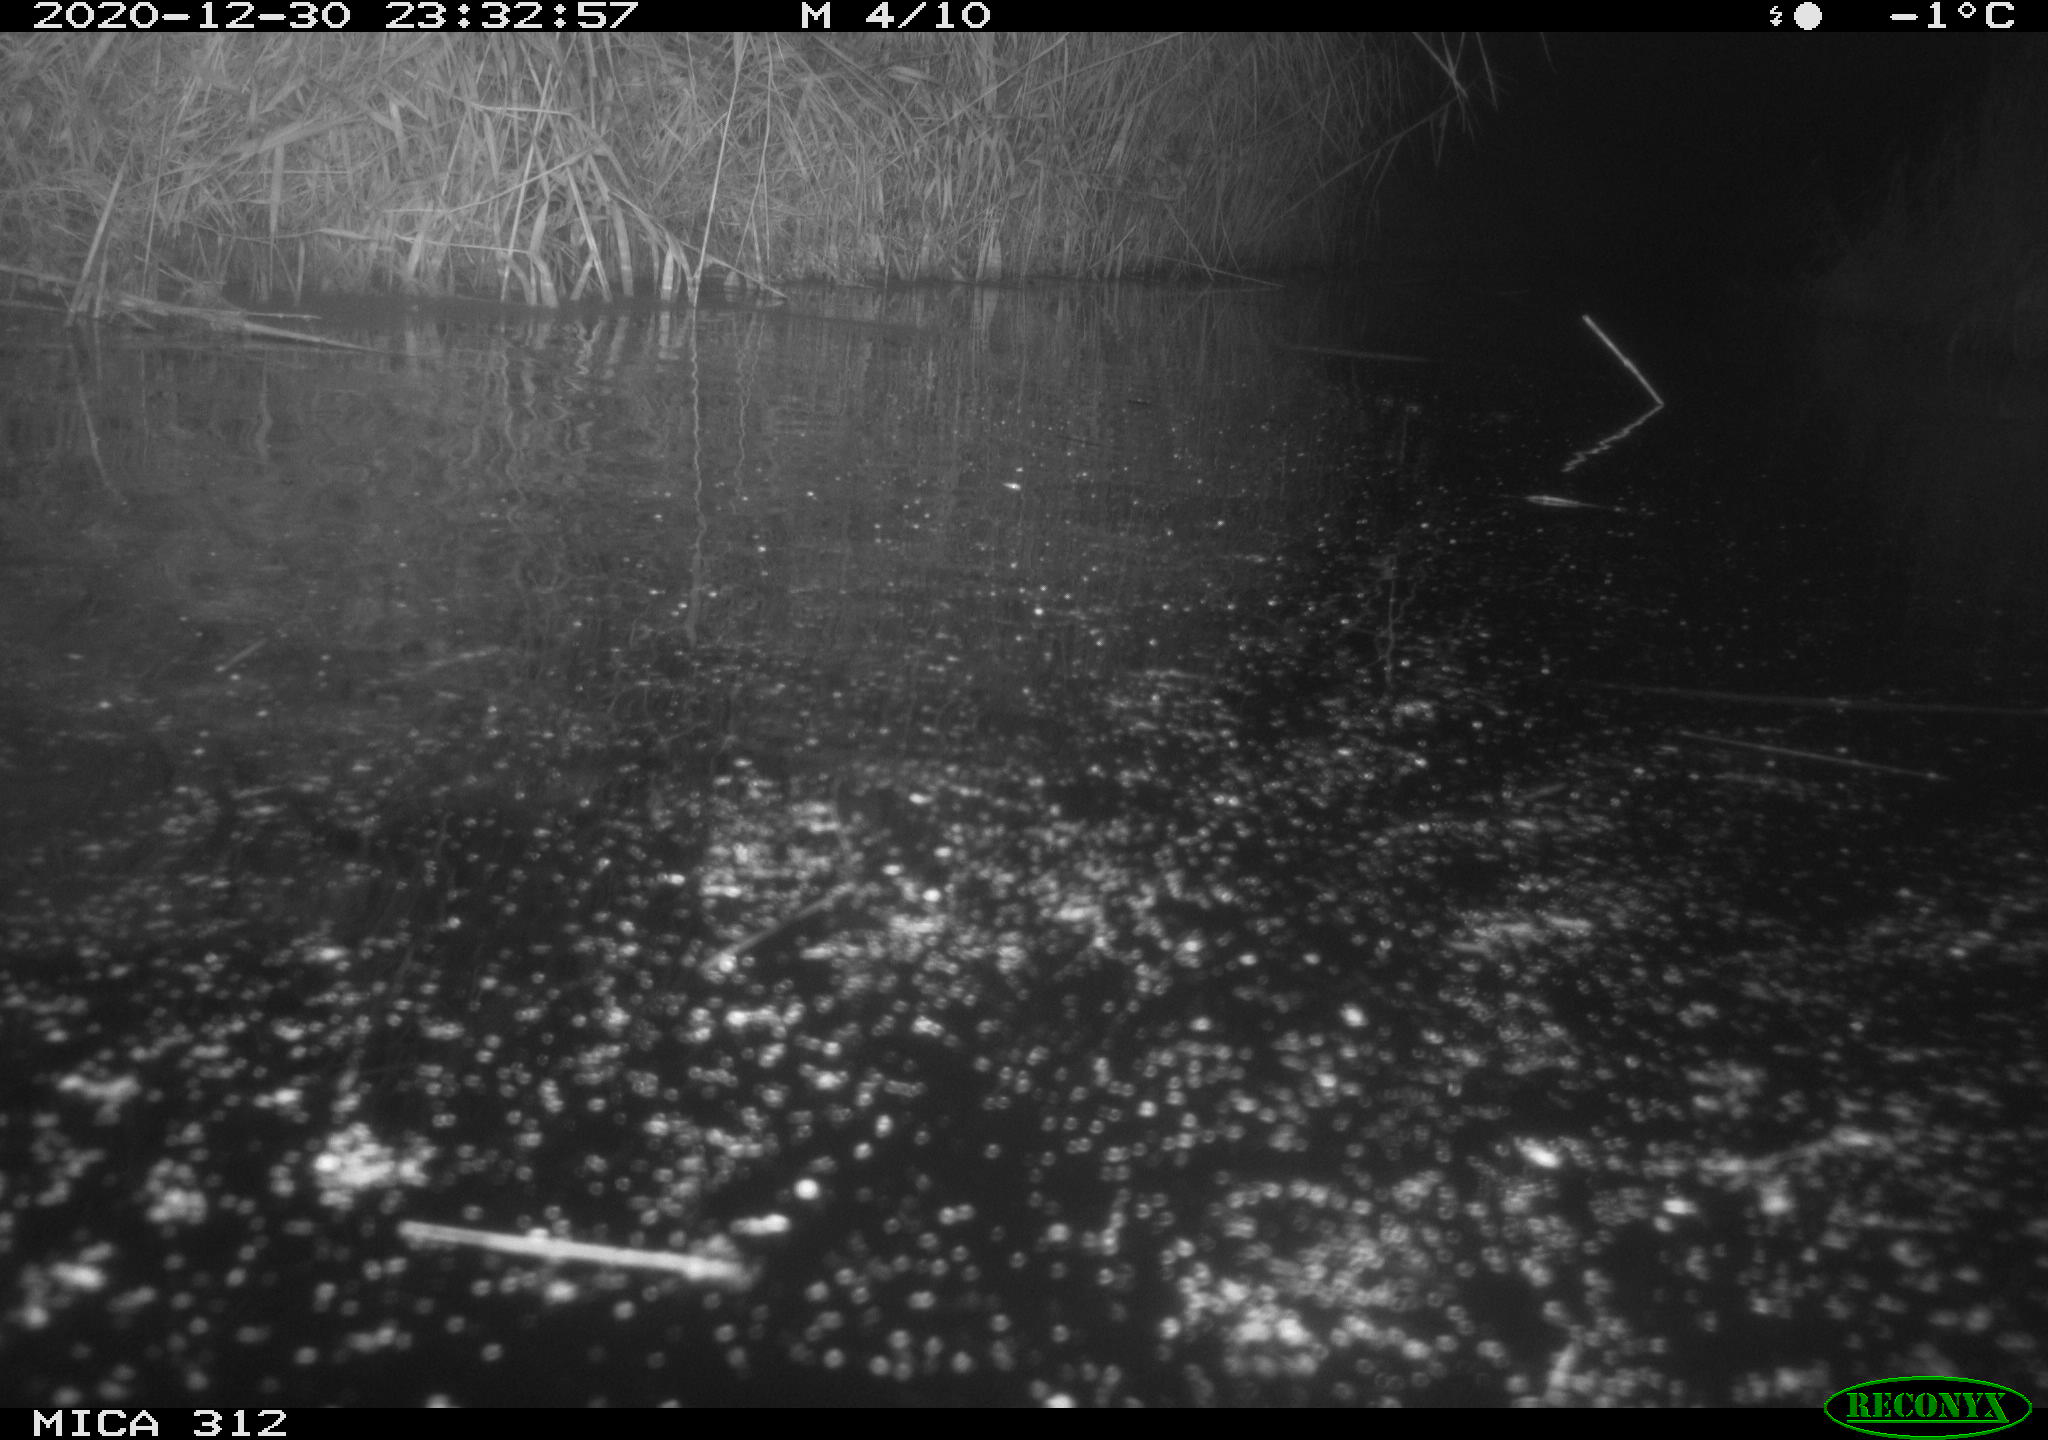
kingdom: Animalia
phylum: Chordata
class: Mammalia
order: Rodentia
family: Muridae
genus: Rattus
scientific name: Rattus norvegicus
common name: Brown rat
